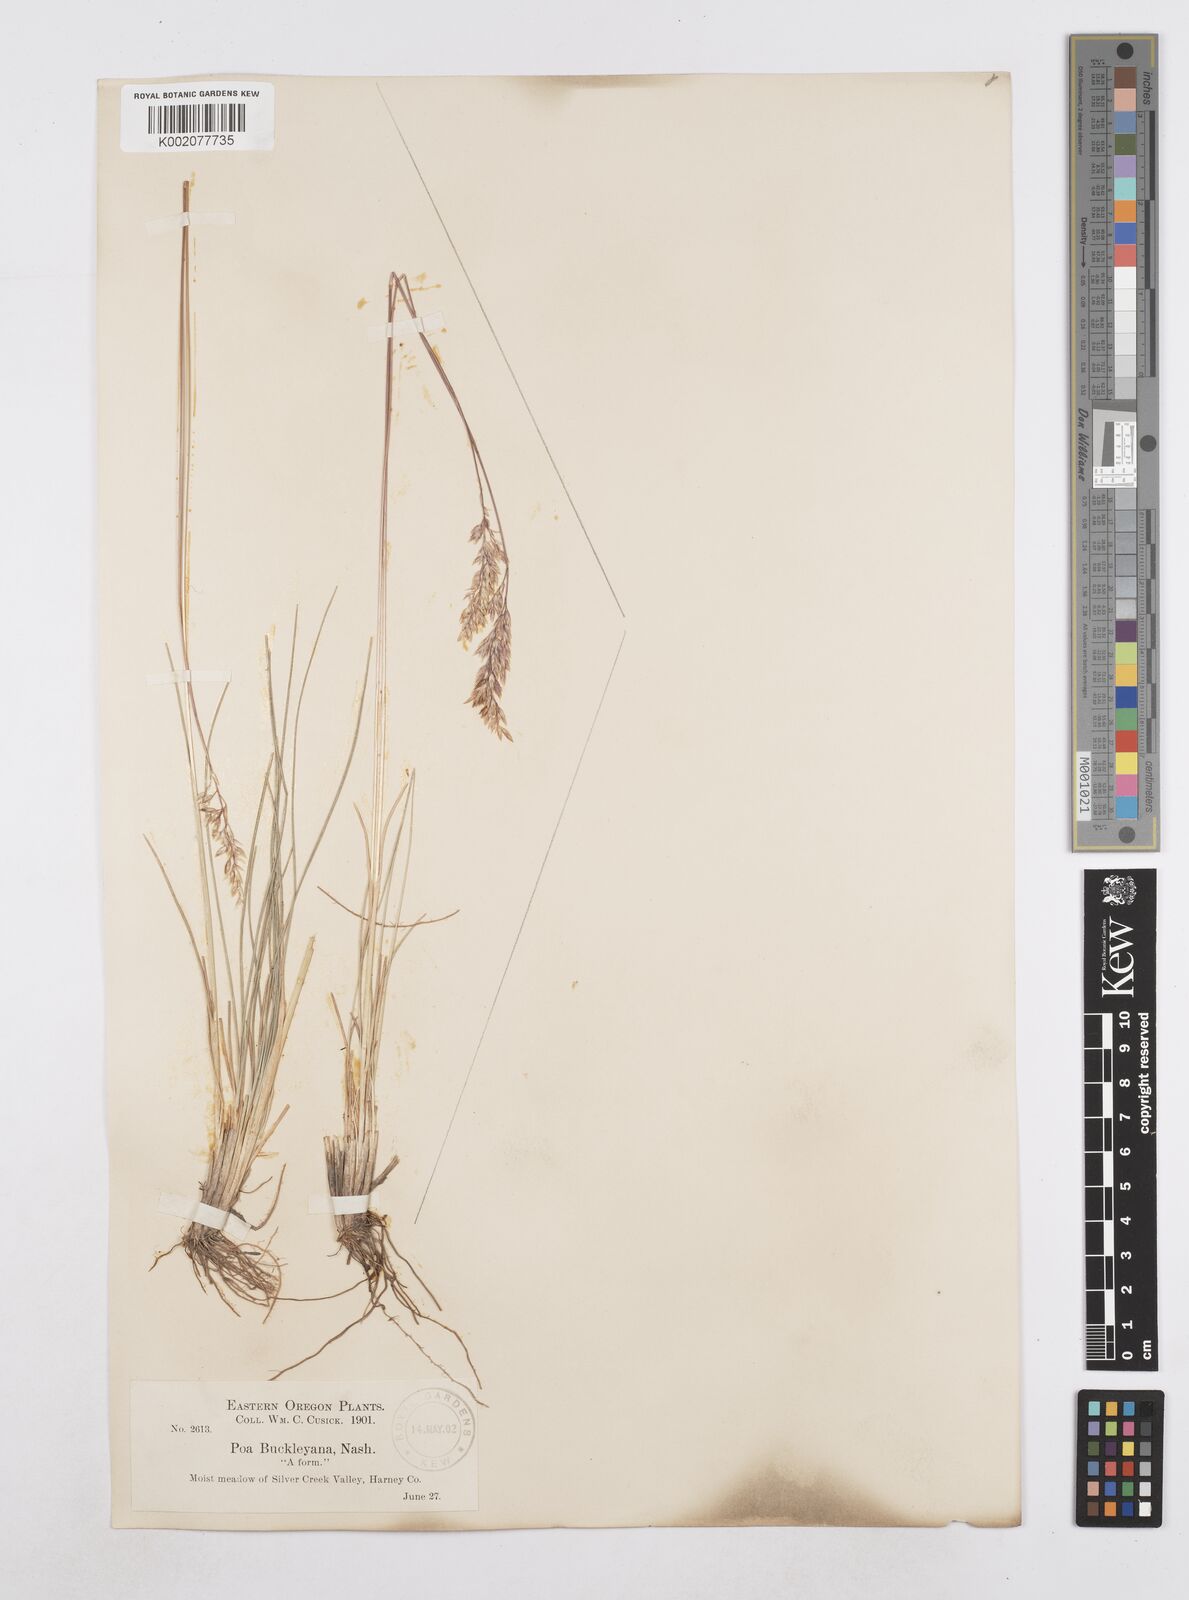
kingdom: Plantae
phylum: Tracheophyta
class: Liliopsida
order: Poales
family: Poaceae
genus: Poa
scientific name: Poa secunda
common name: Sandberg bluegrass
